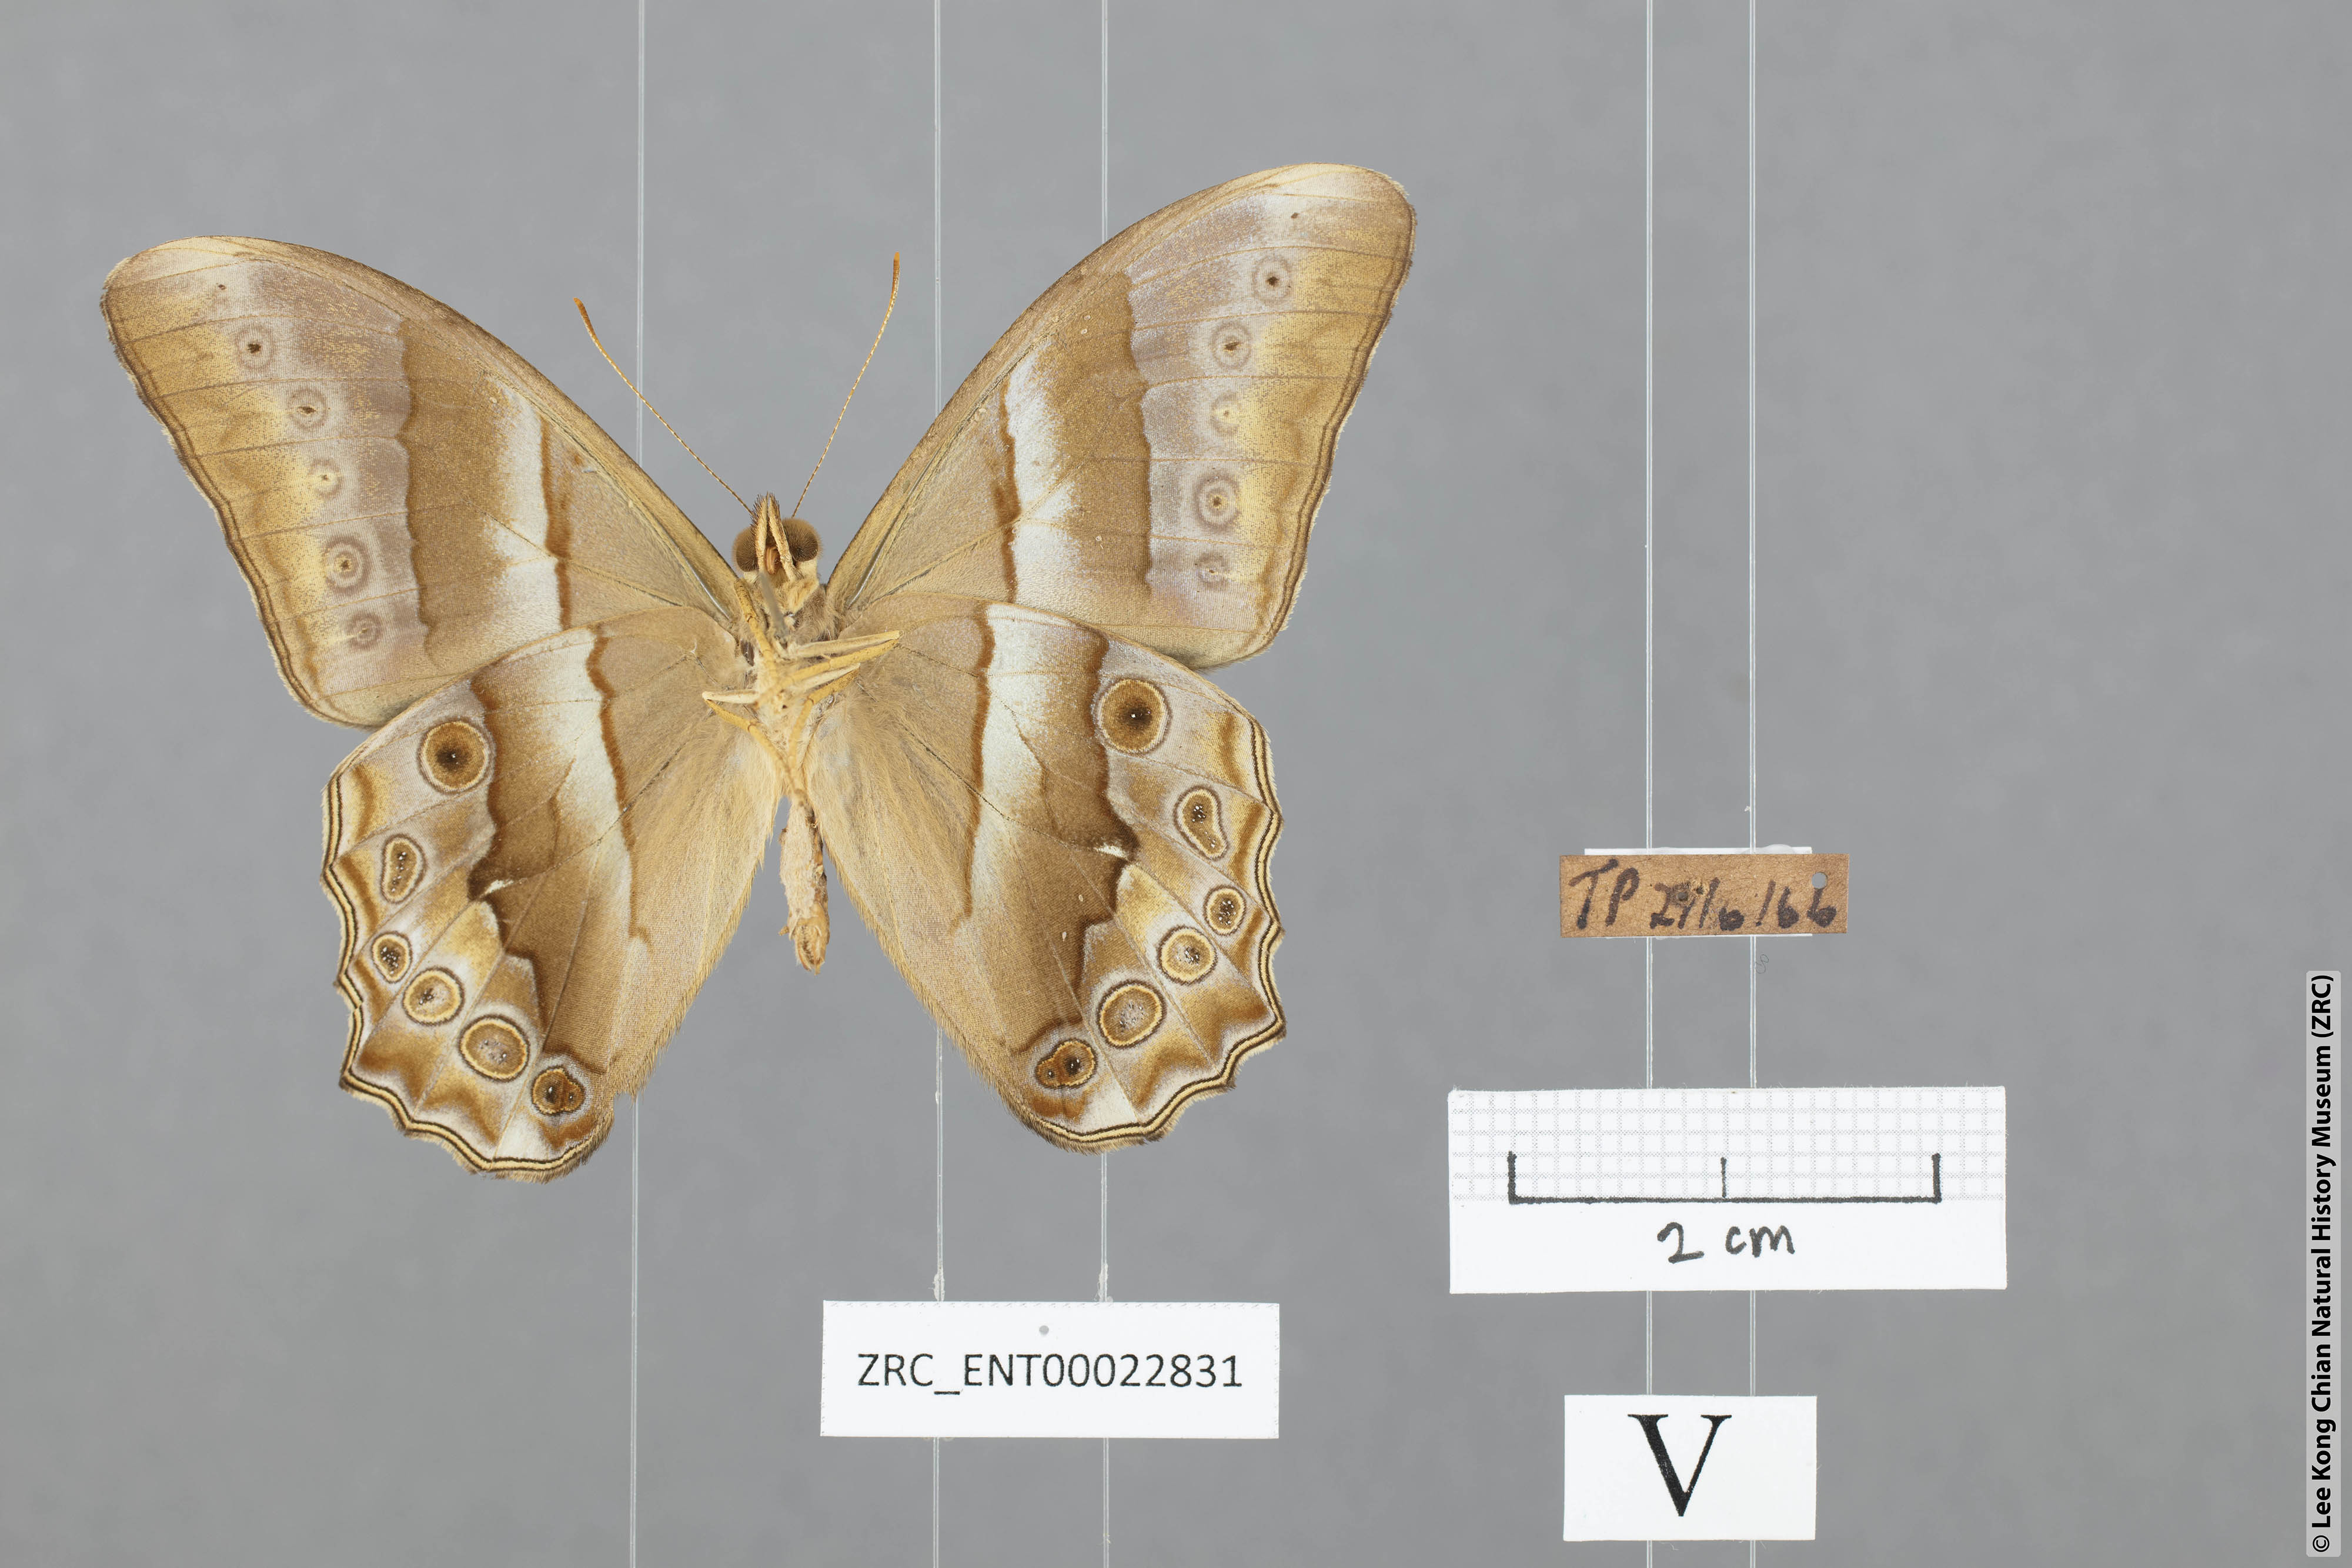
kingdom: Animalia
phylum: Arthropoda
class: Insecta
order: Lepidoptera
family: Nymphalidae
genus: Lethe
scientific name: Lethe mekara
